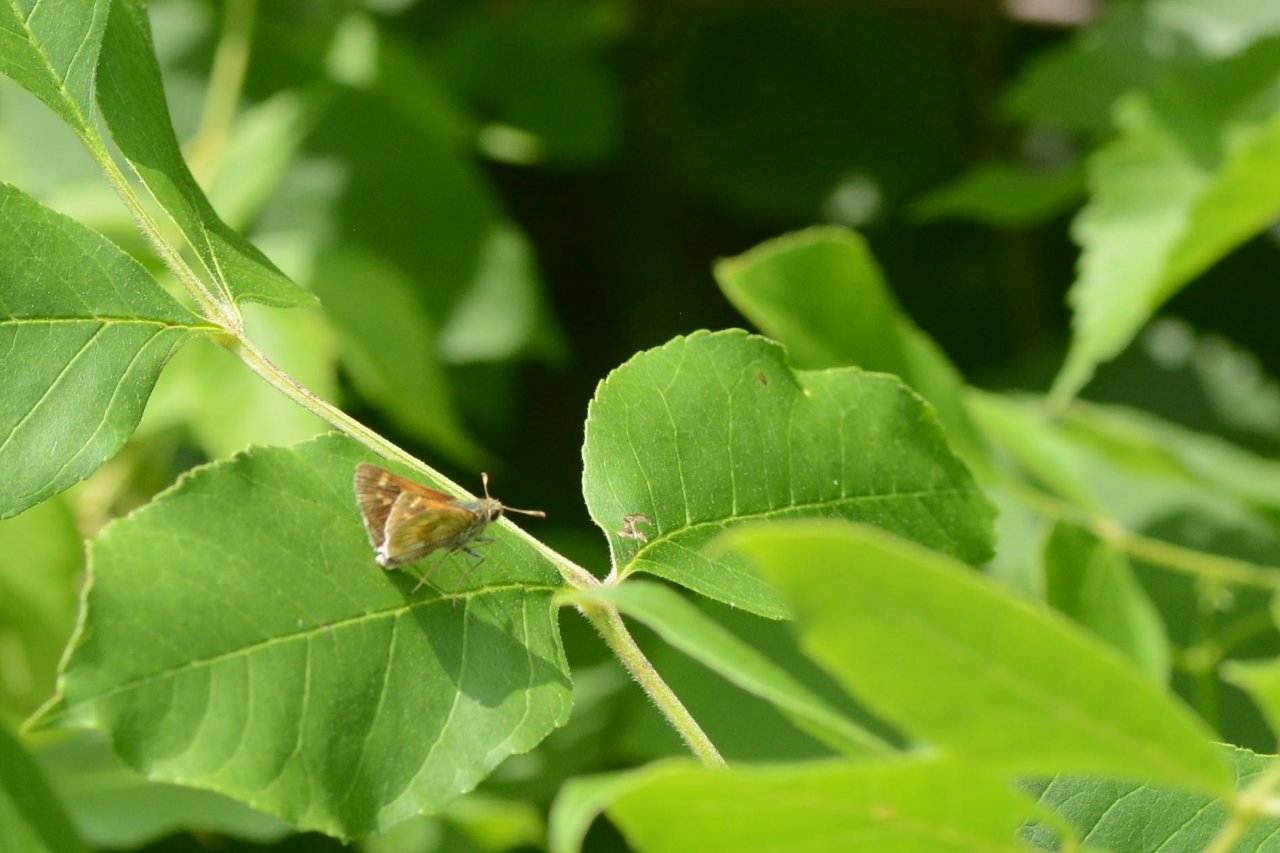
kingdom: Animalia
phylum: Arthropoda
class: Insecta
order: Lepidoptera
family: Hesperiidae
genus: Polites
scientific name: Polites
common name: Long Dash Skipper
